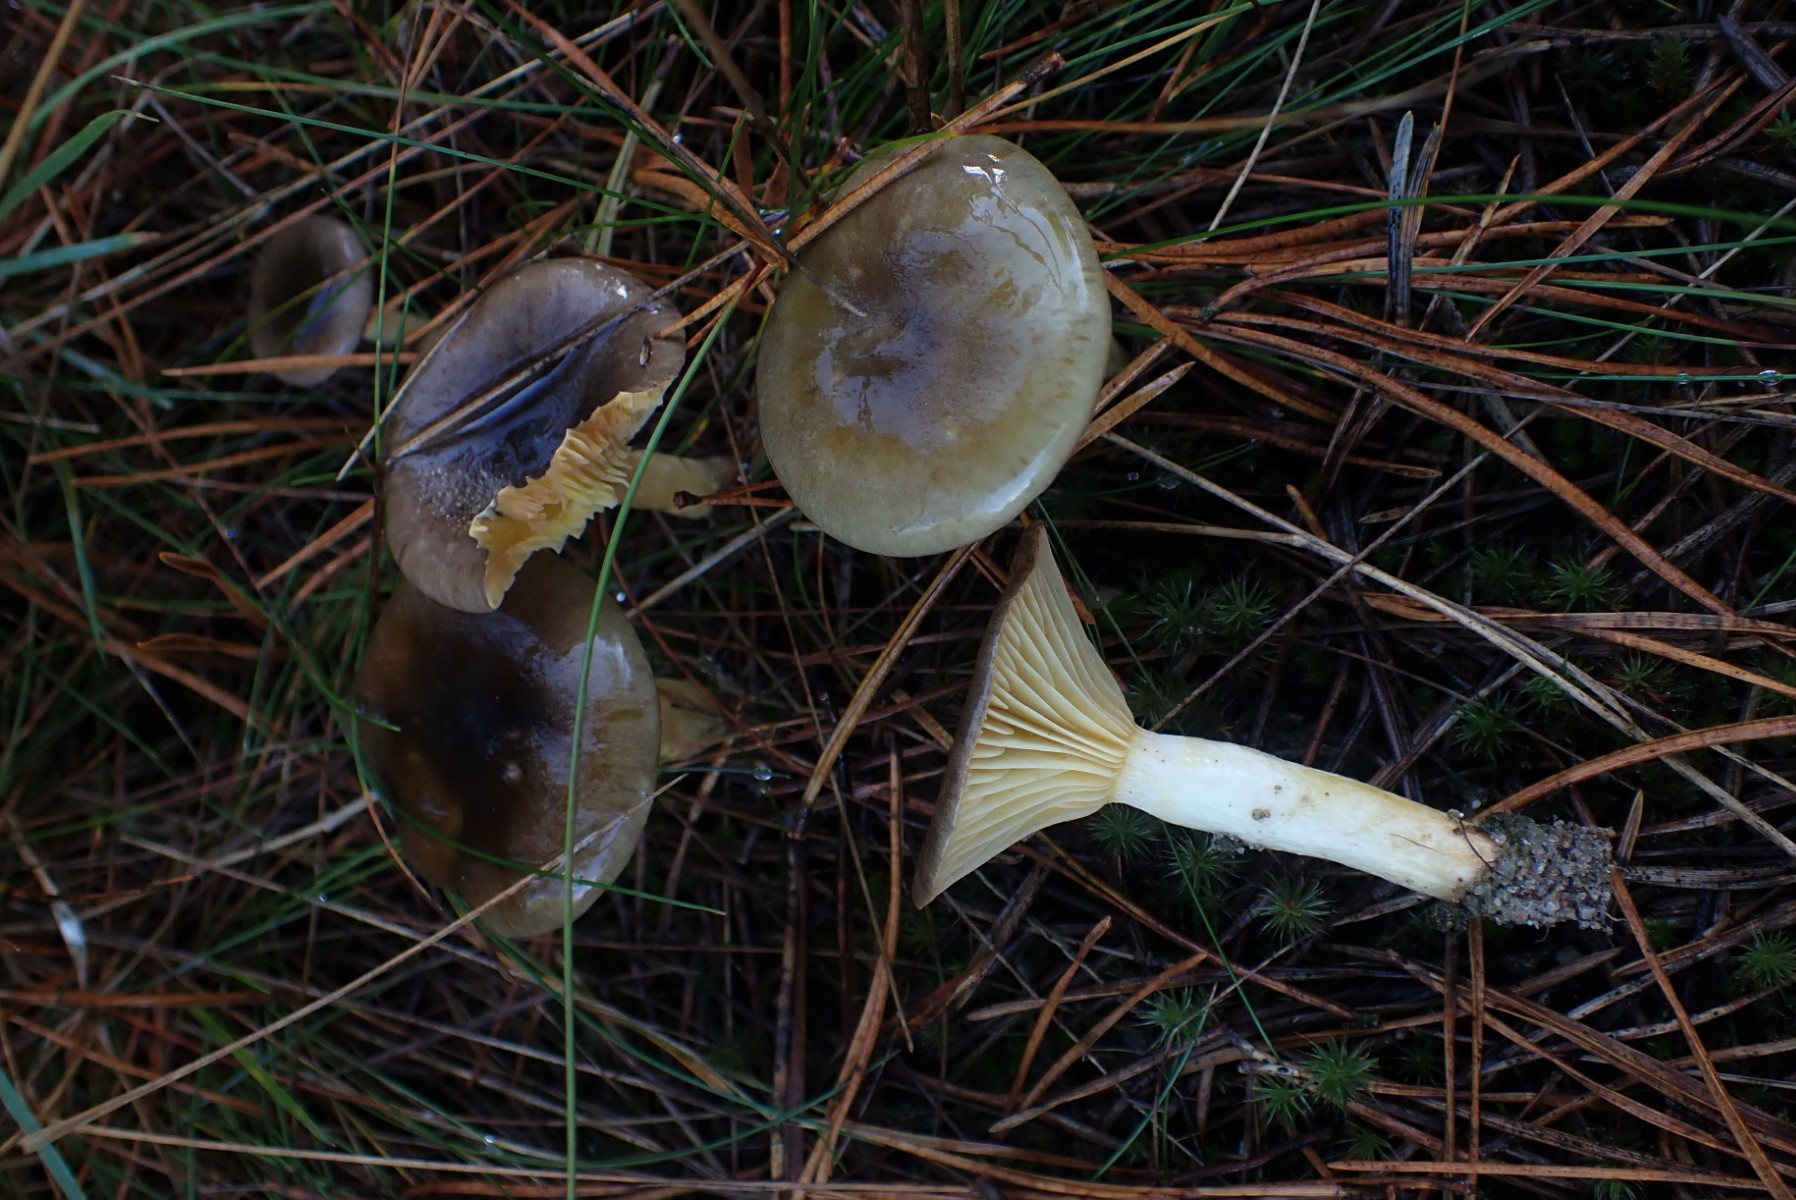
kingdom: Fungi
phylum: Basidiomycota
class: Agaricomycetes
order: Agaricales
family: Hygrophoraceae
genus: Hygrophorus
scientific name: Hygrophorus hypothejus
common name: frost-sneglehat
